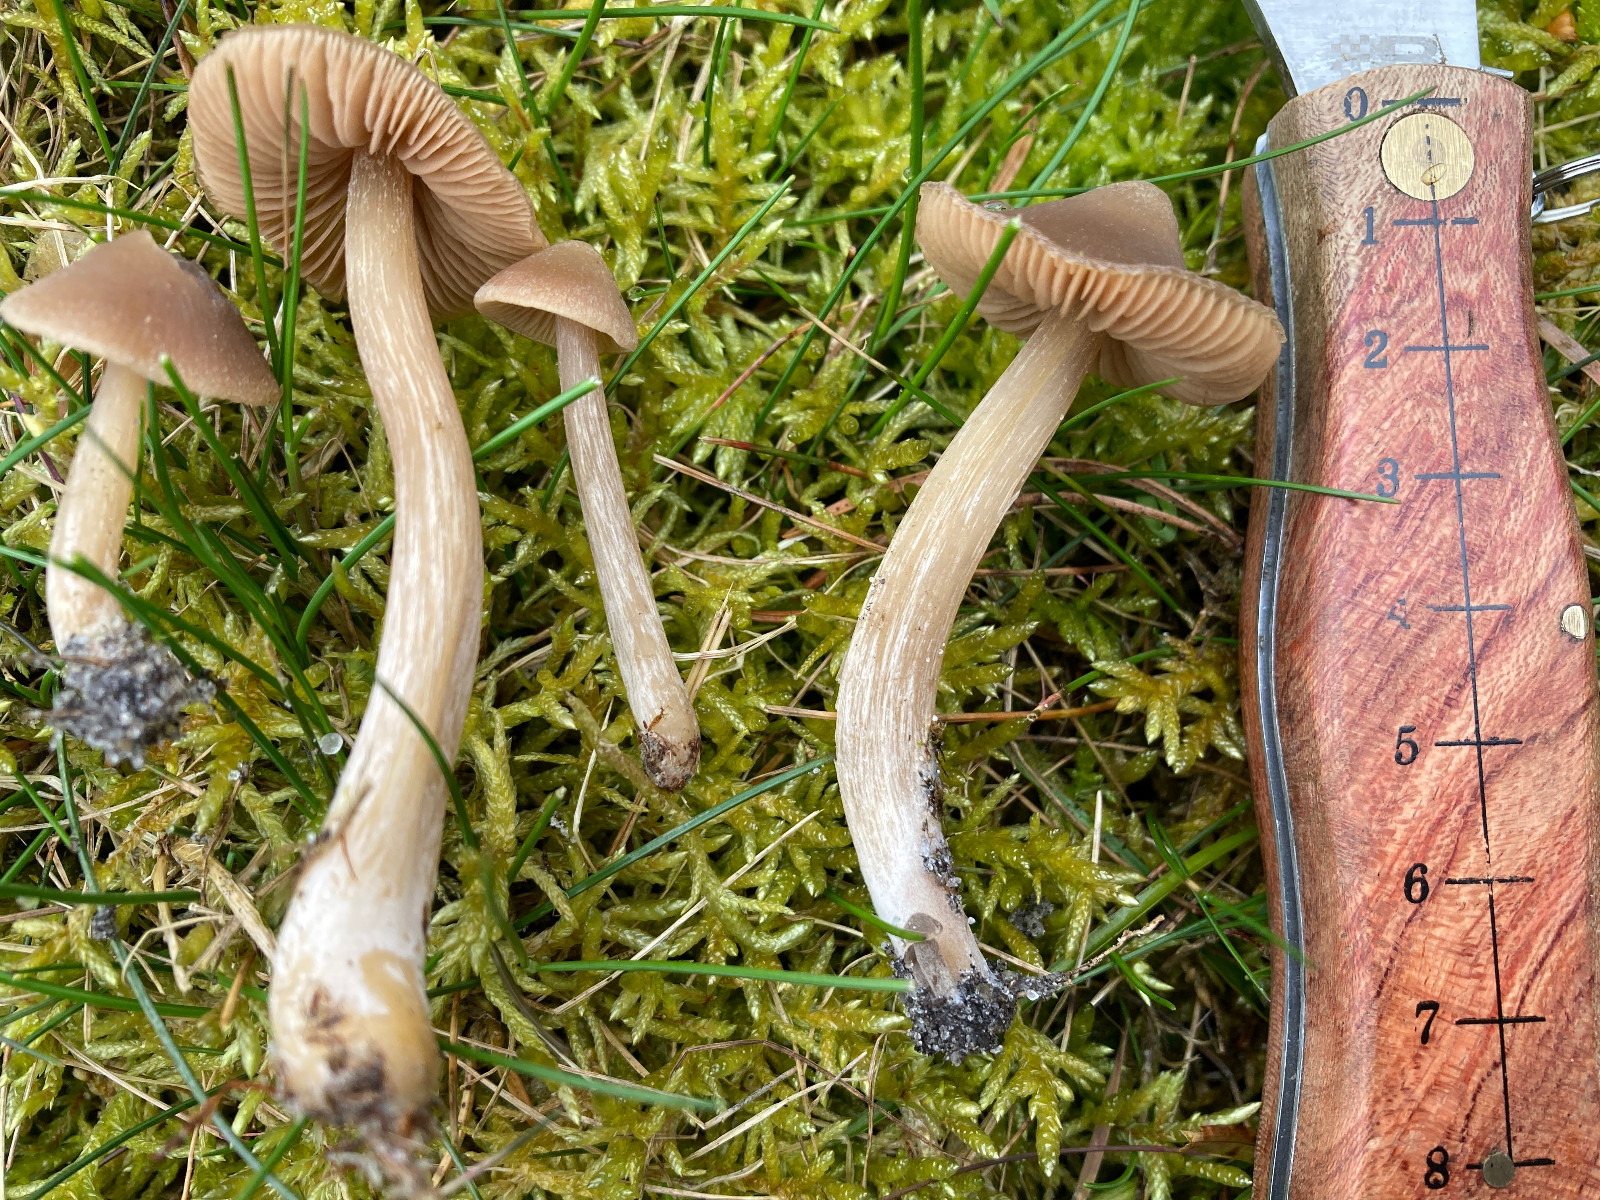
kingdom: Fungi
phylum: Basidiomycota
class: Agaricomycetes
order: Agaricales
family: Entolomataceae
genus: Entoloma
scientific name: Entoloma
